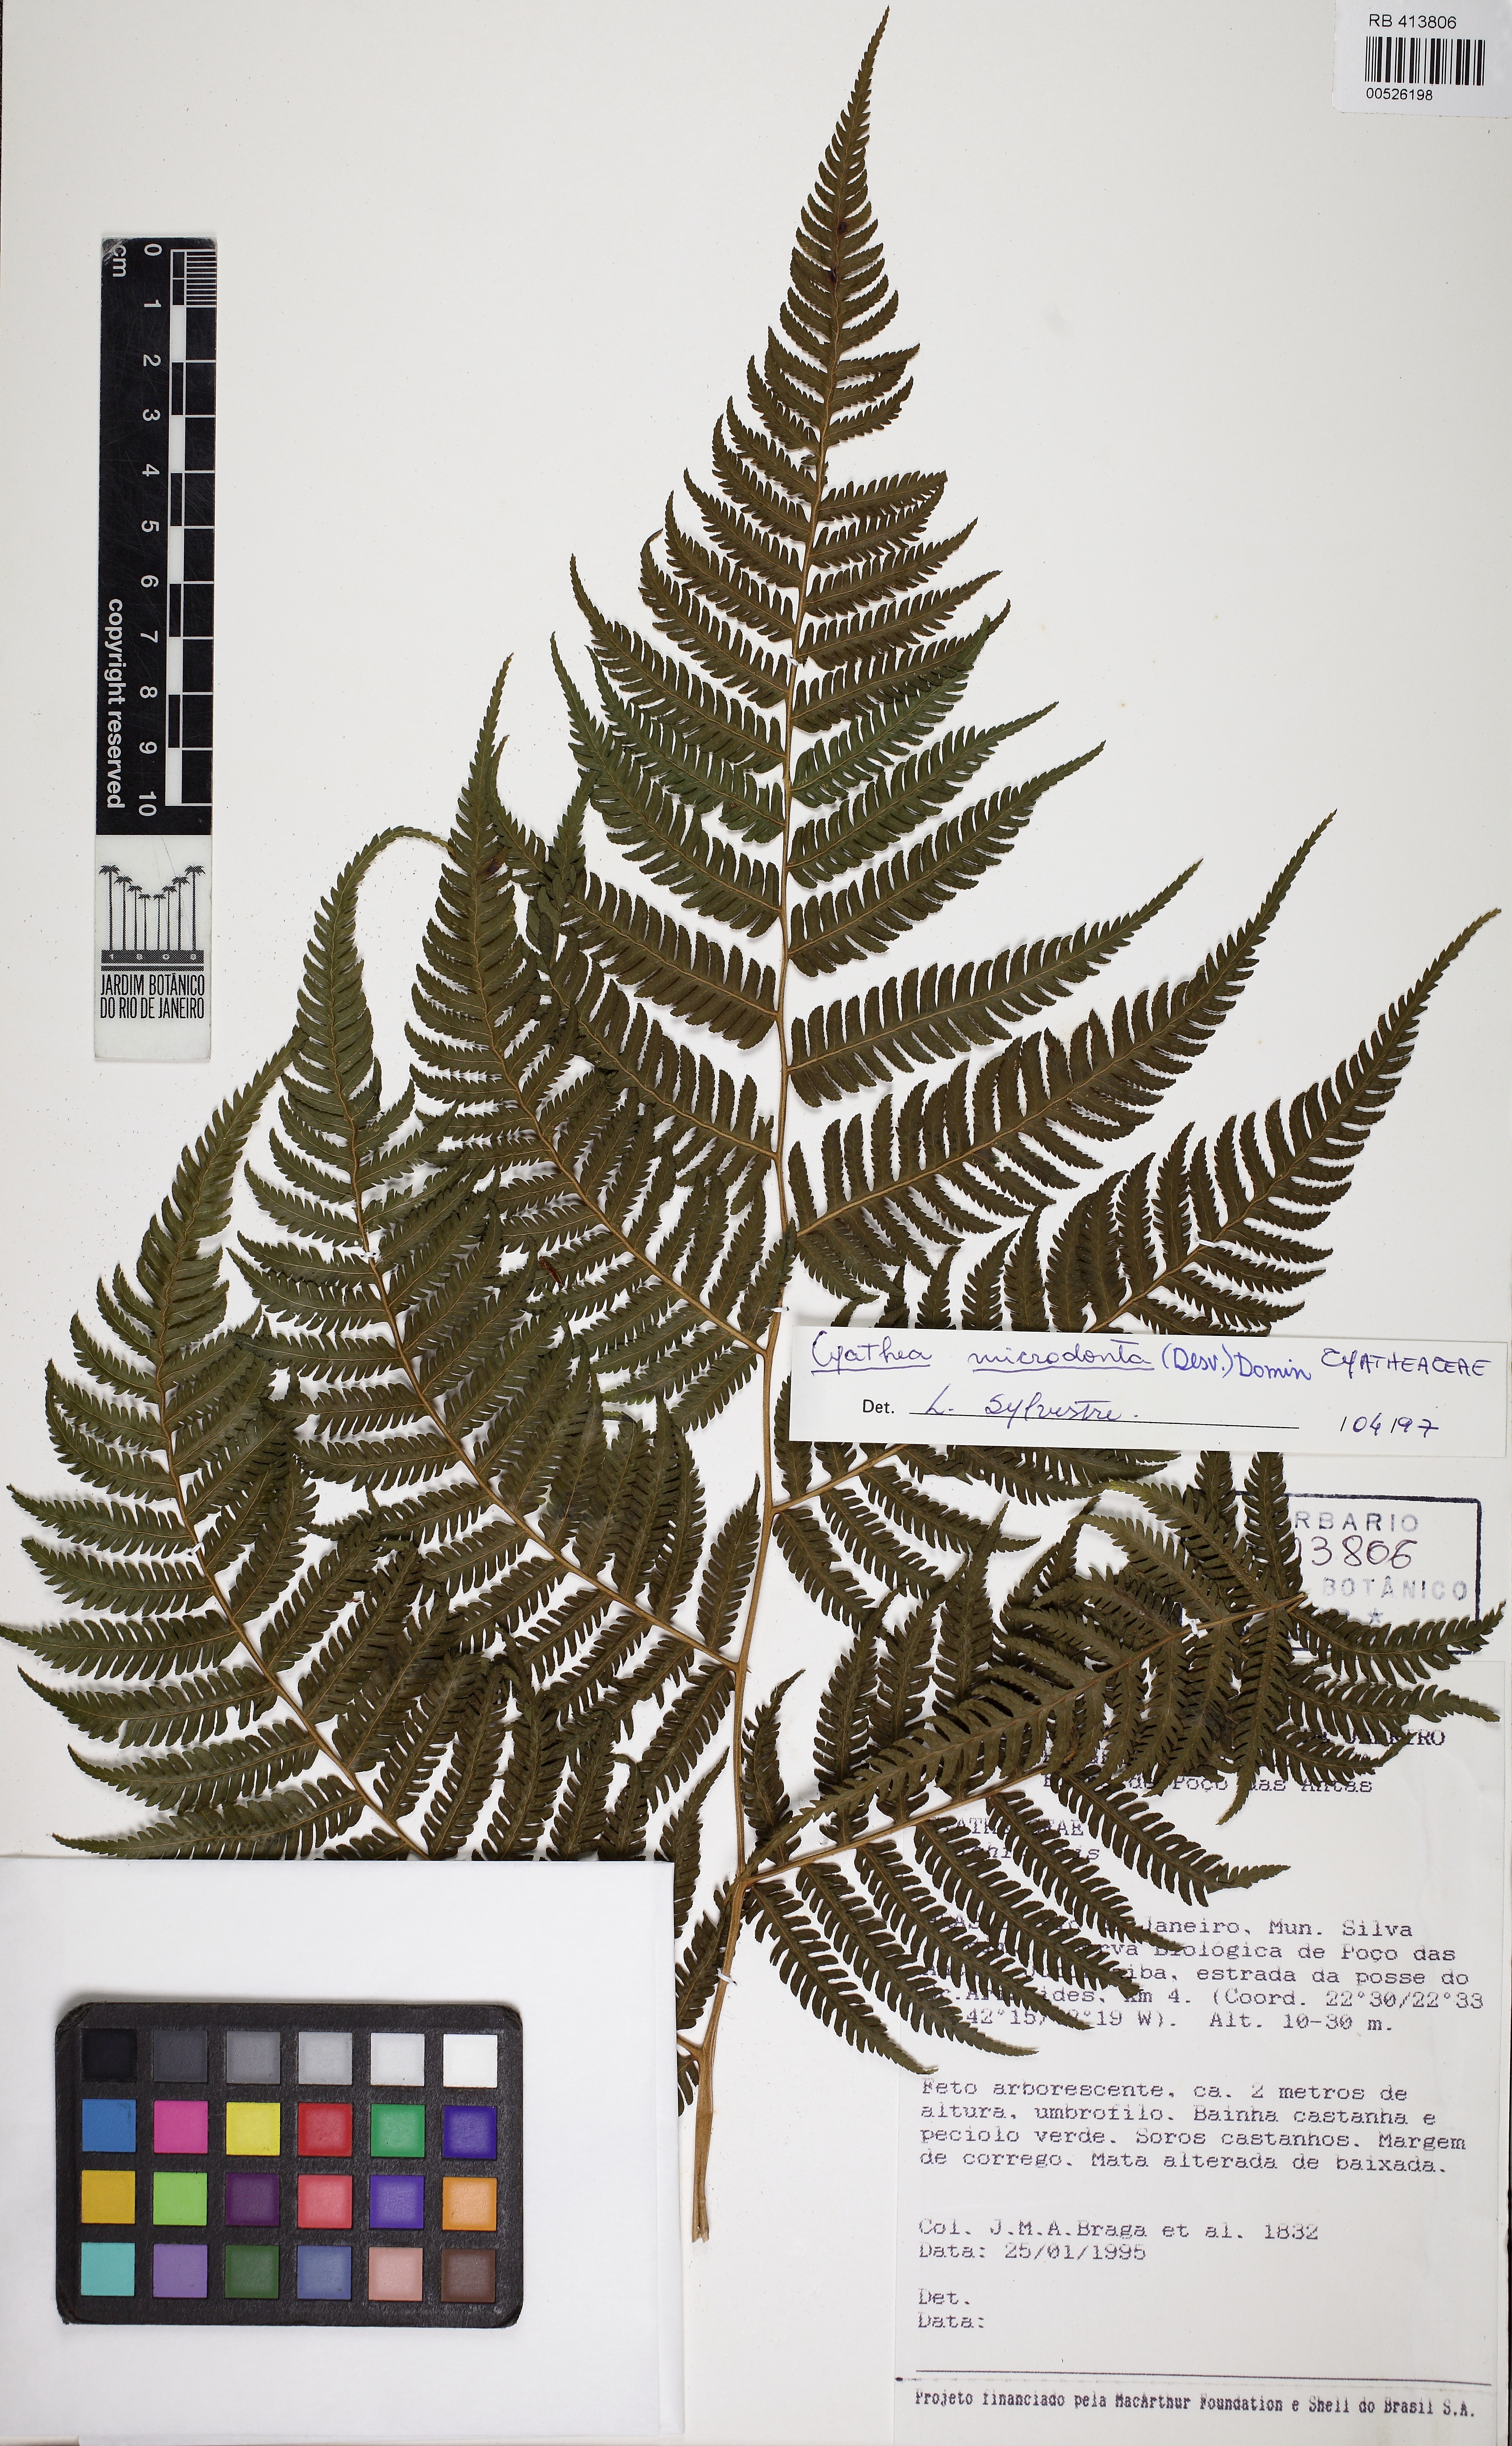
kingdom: Plantae
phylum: Tracheophyta
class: Polypodiopsida
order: Cyatheales
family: Cyatheaceae
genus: Cyathea
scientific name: Cyathea microdonta
